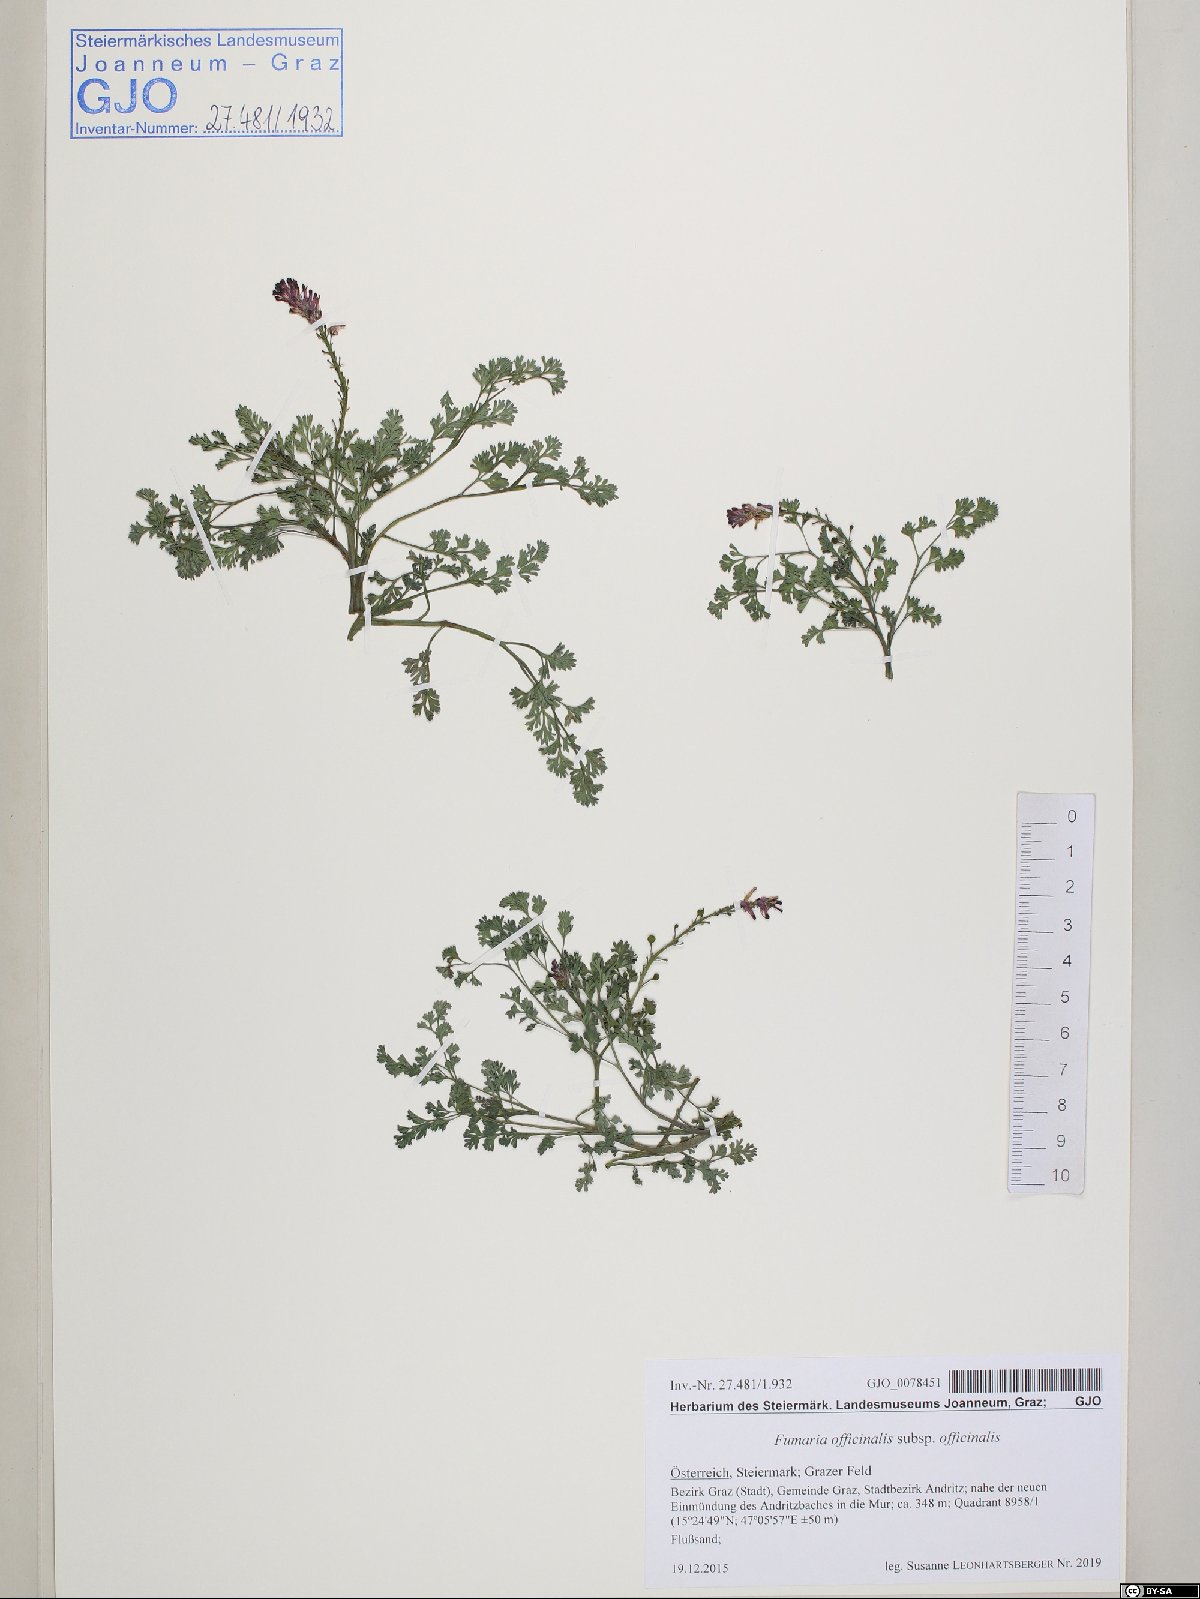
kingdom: Plantae
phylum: Tracheophyta
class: Magnoliopsida
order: Ranunculales
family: Papaveraceae
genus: Fumaria
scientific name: Fumaria officinalis
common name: Common fumitory
